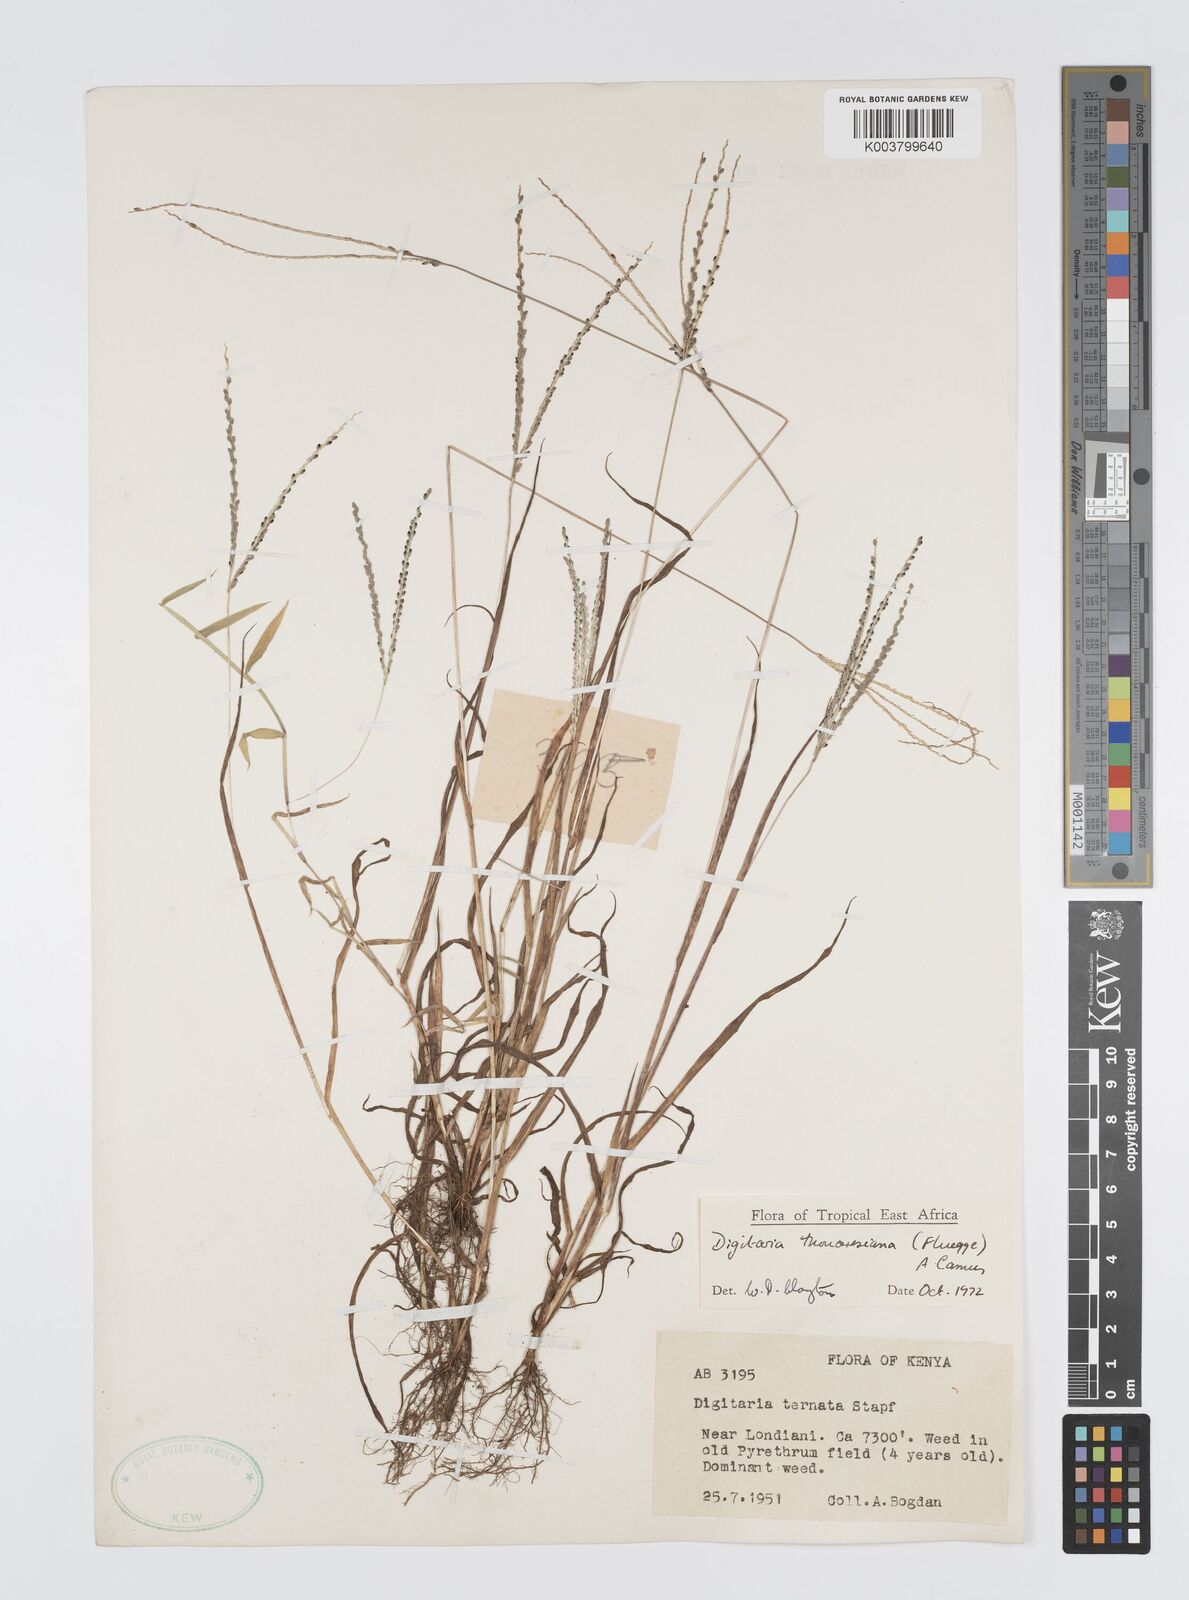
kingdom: Plantae
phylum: Tracheophyta
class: Liliopsida
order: Poales
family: Poaceae
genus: Digitaria
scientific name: Digitaria thouarsiana
